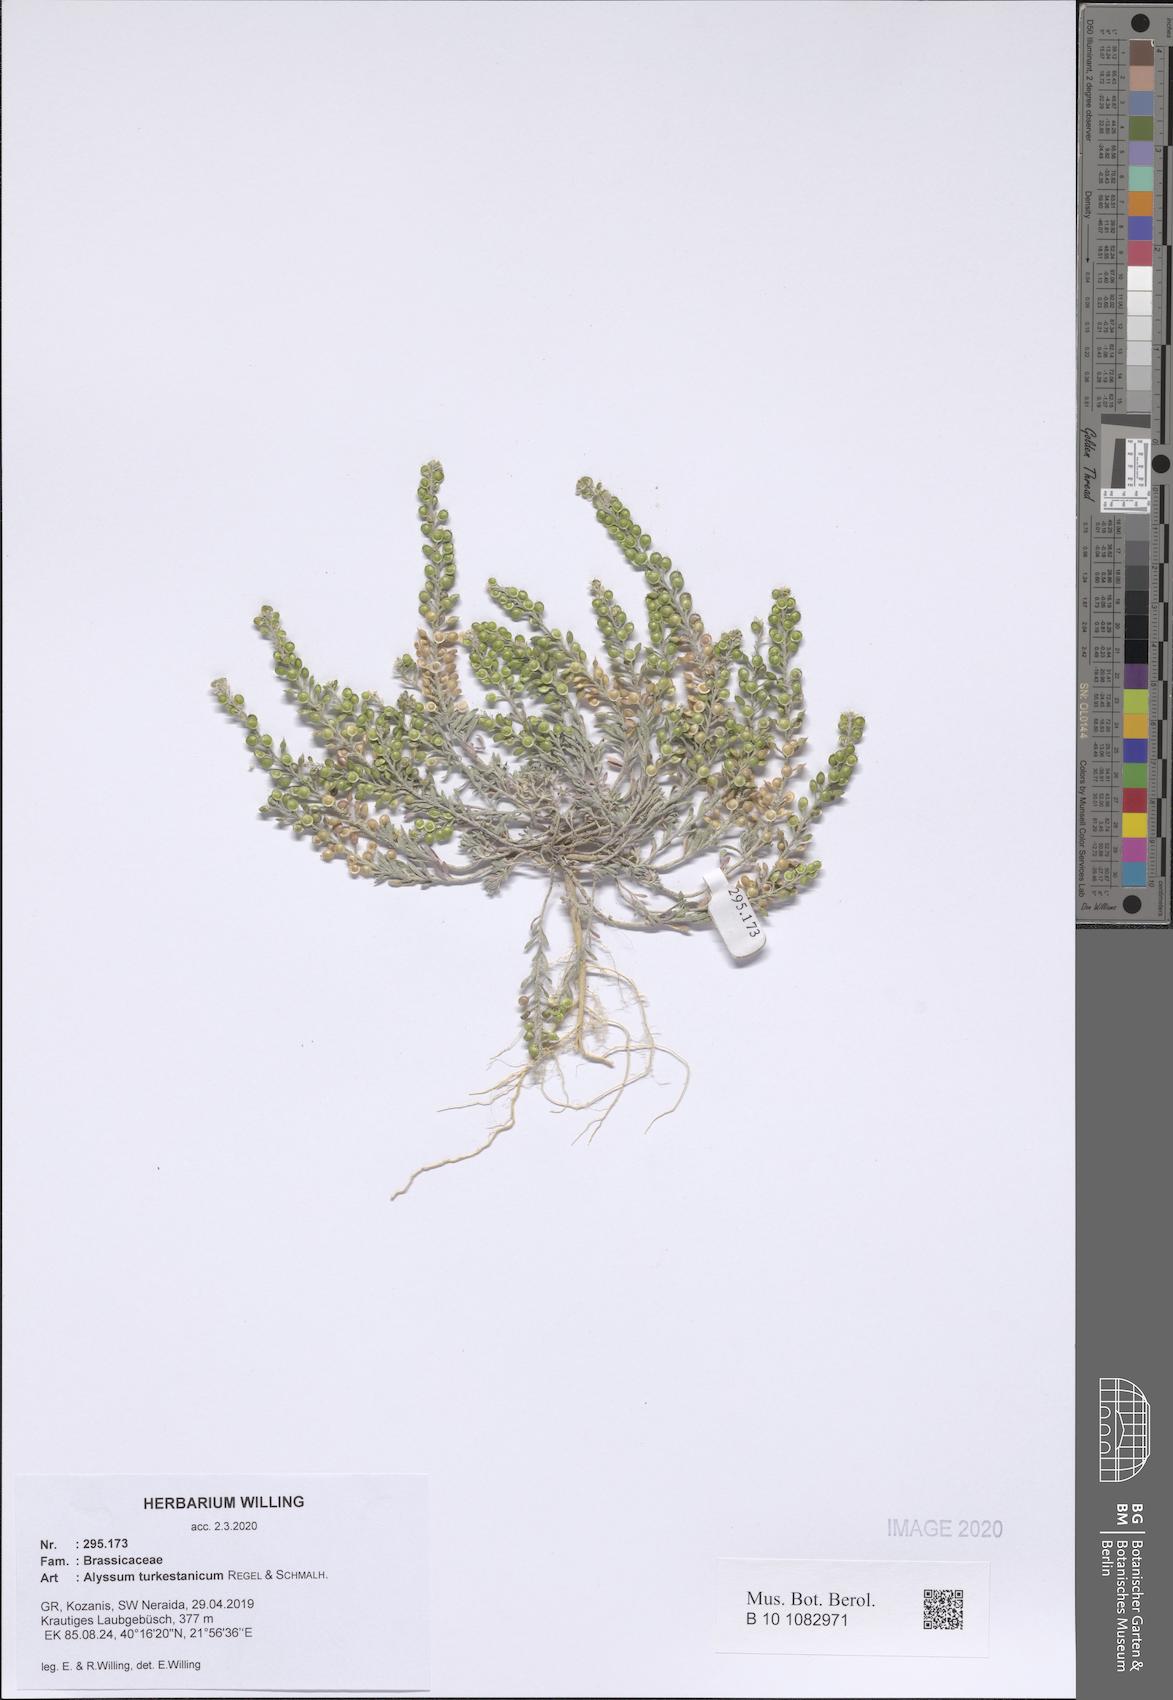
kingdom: Plantae
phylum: Tracheophyta
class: Magnoliopsida
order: Brassicales
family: Brassicaceae
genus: Alyssum
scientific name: Alyssum turkestanicum
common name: Desert alyssum
